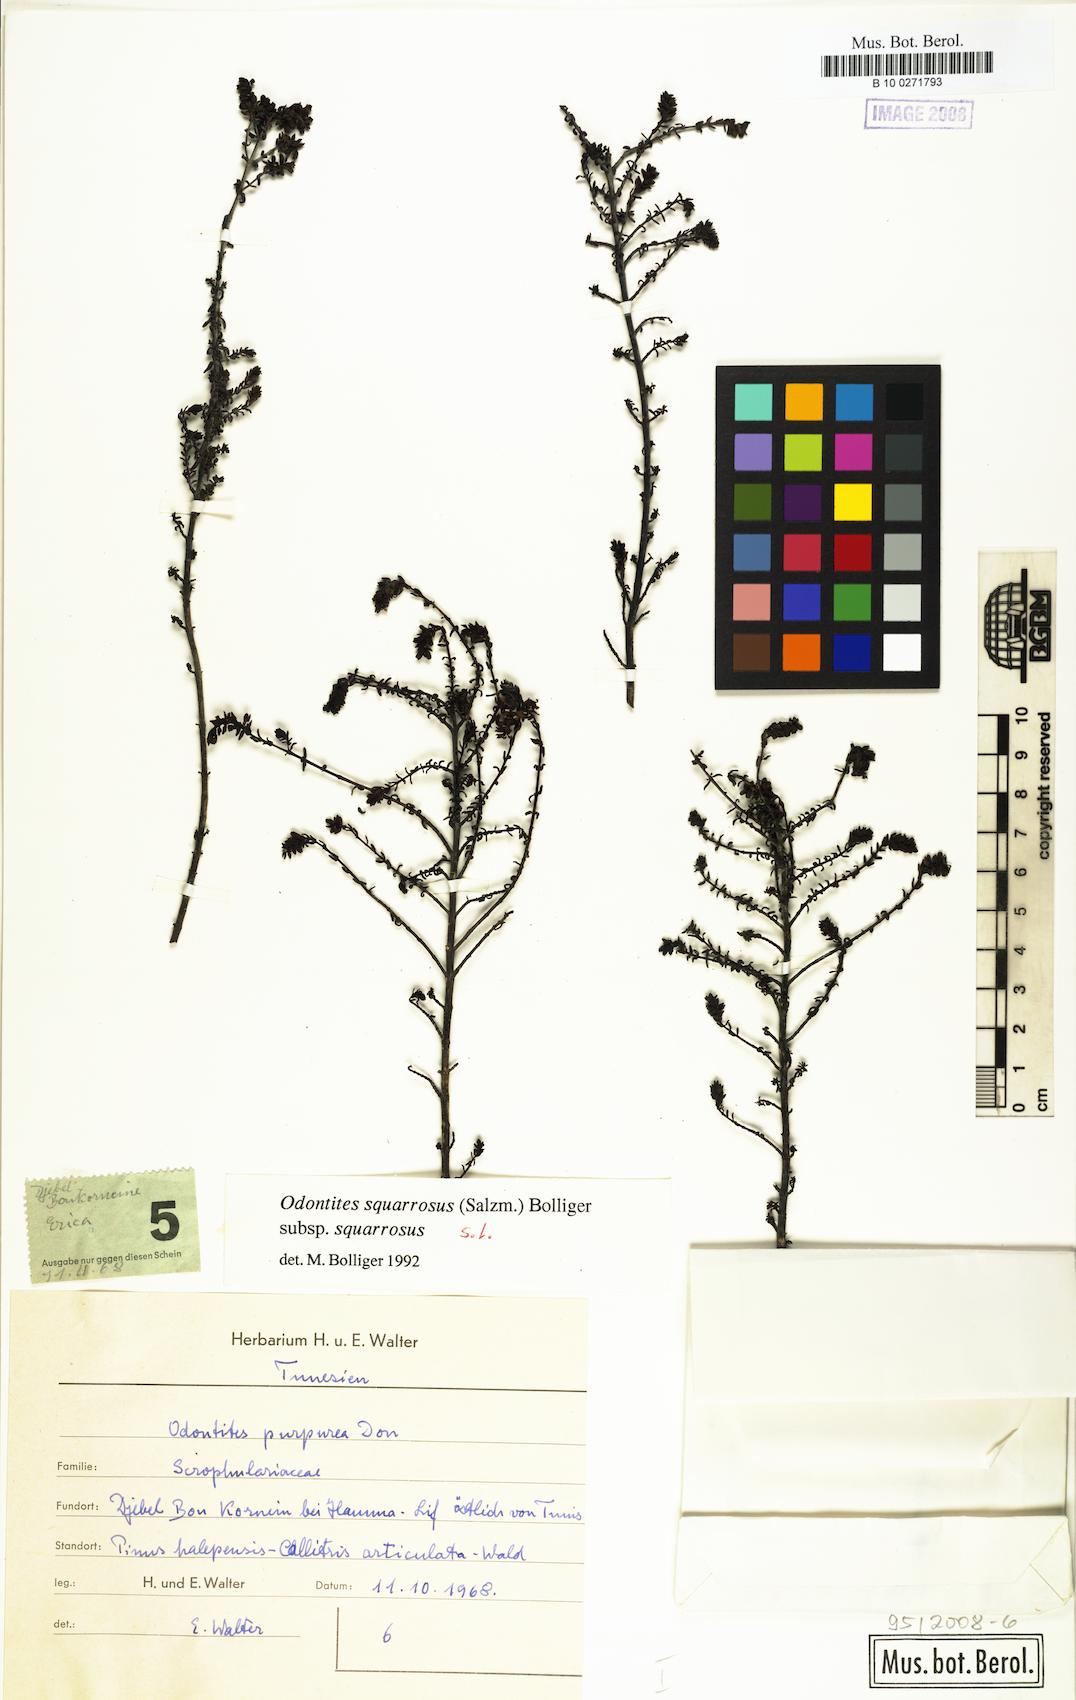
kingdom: Plantae
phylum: Tracheophyta
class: Magnoliopsida
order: Lamiales
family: Orobanchaceae
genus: Odontites
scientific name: Odontites bolligeri
